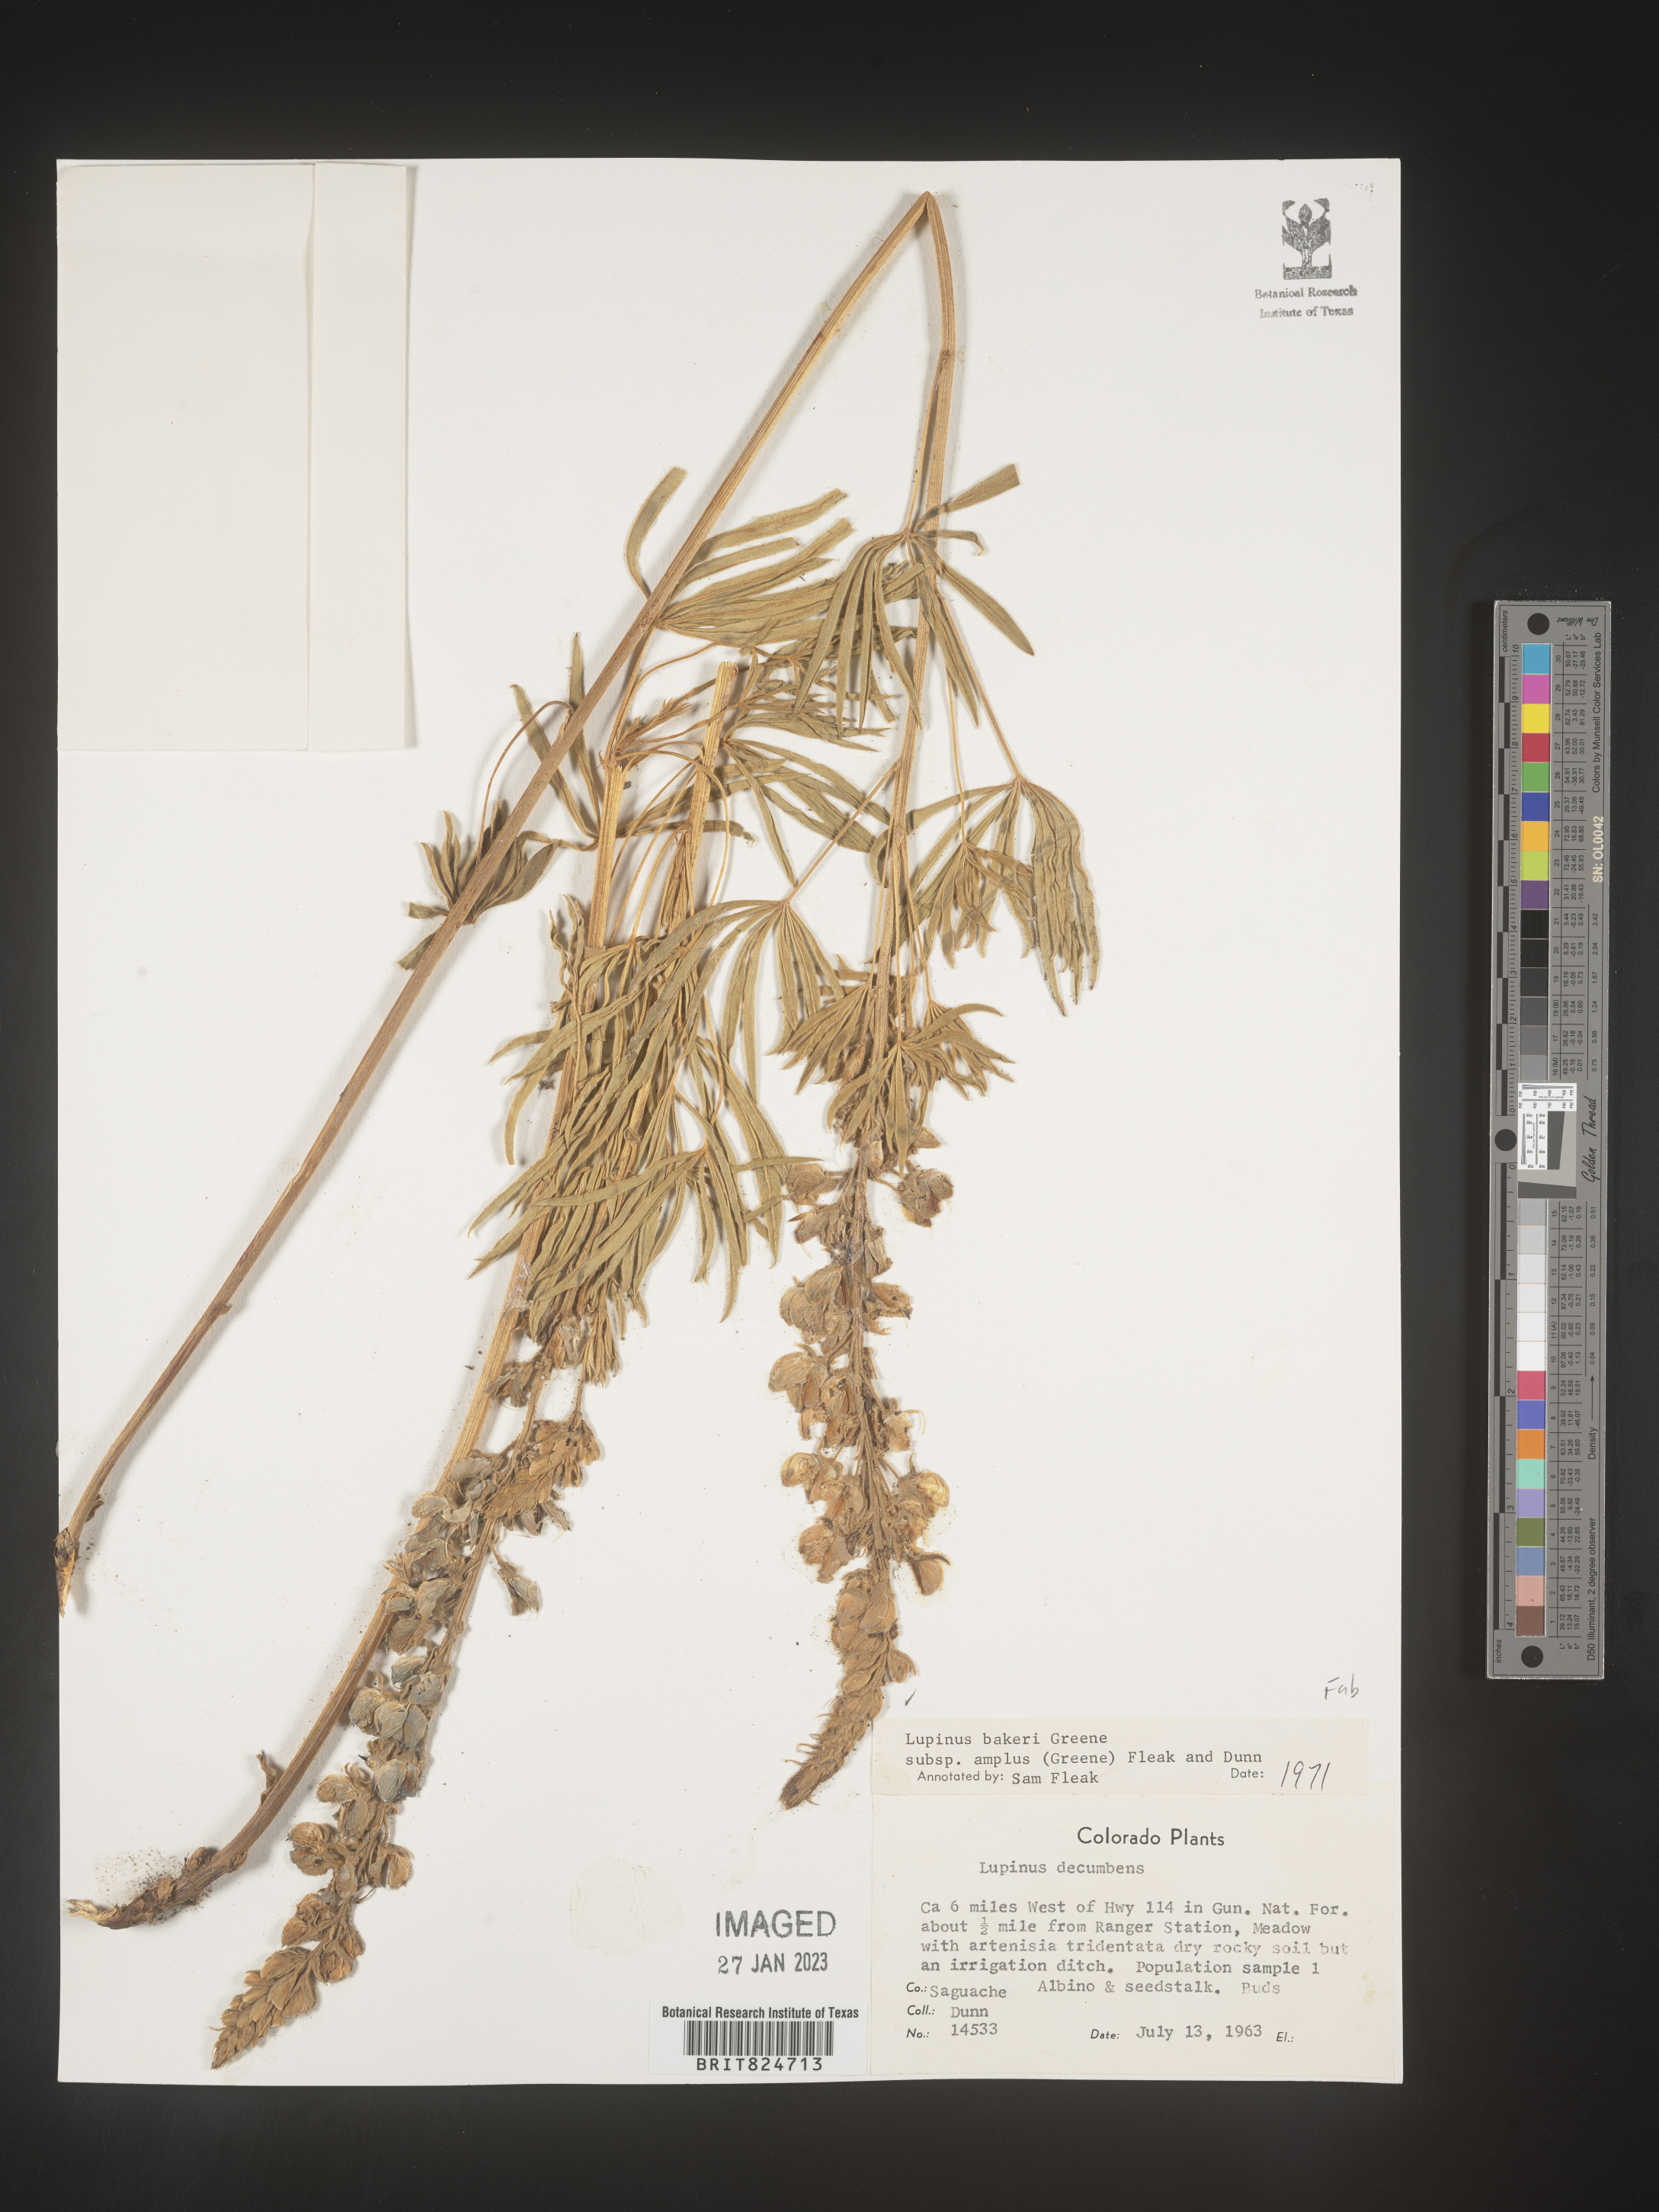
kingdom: Plantae
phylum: Tracheophyta
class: Magnoliopsida
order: Fabales
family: Fabaceae
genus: Lupinus
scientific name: Lupinus
